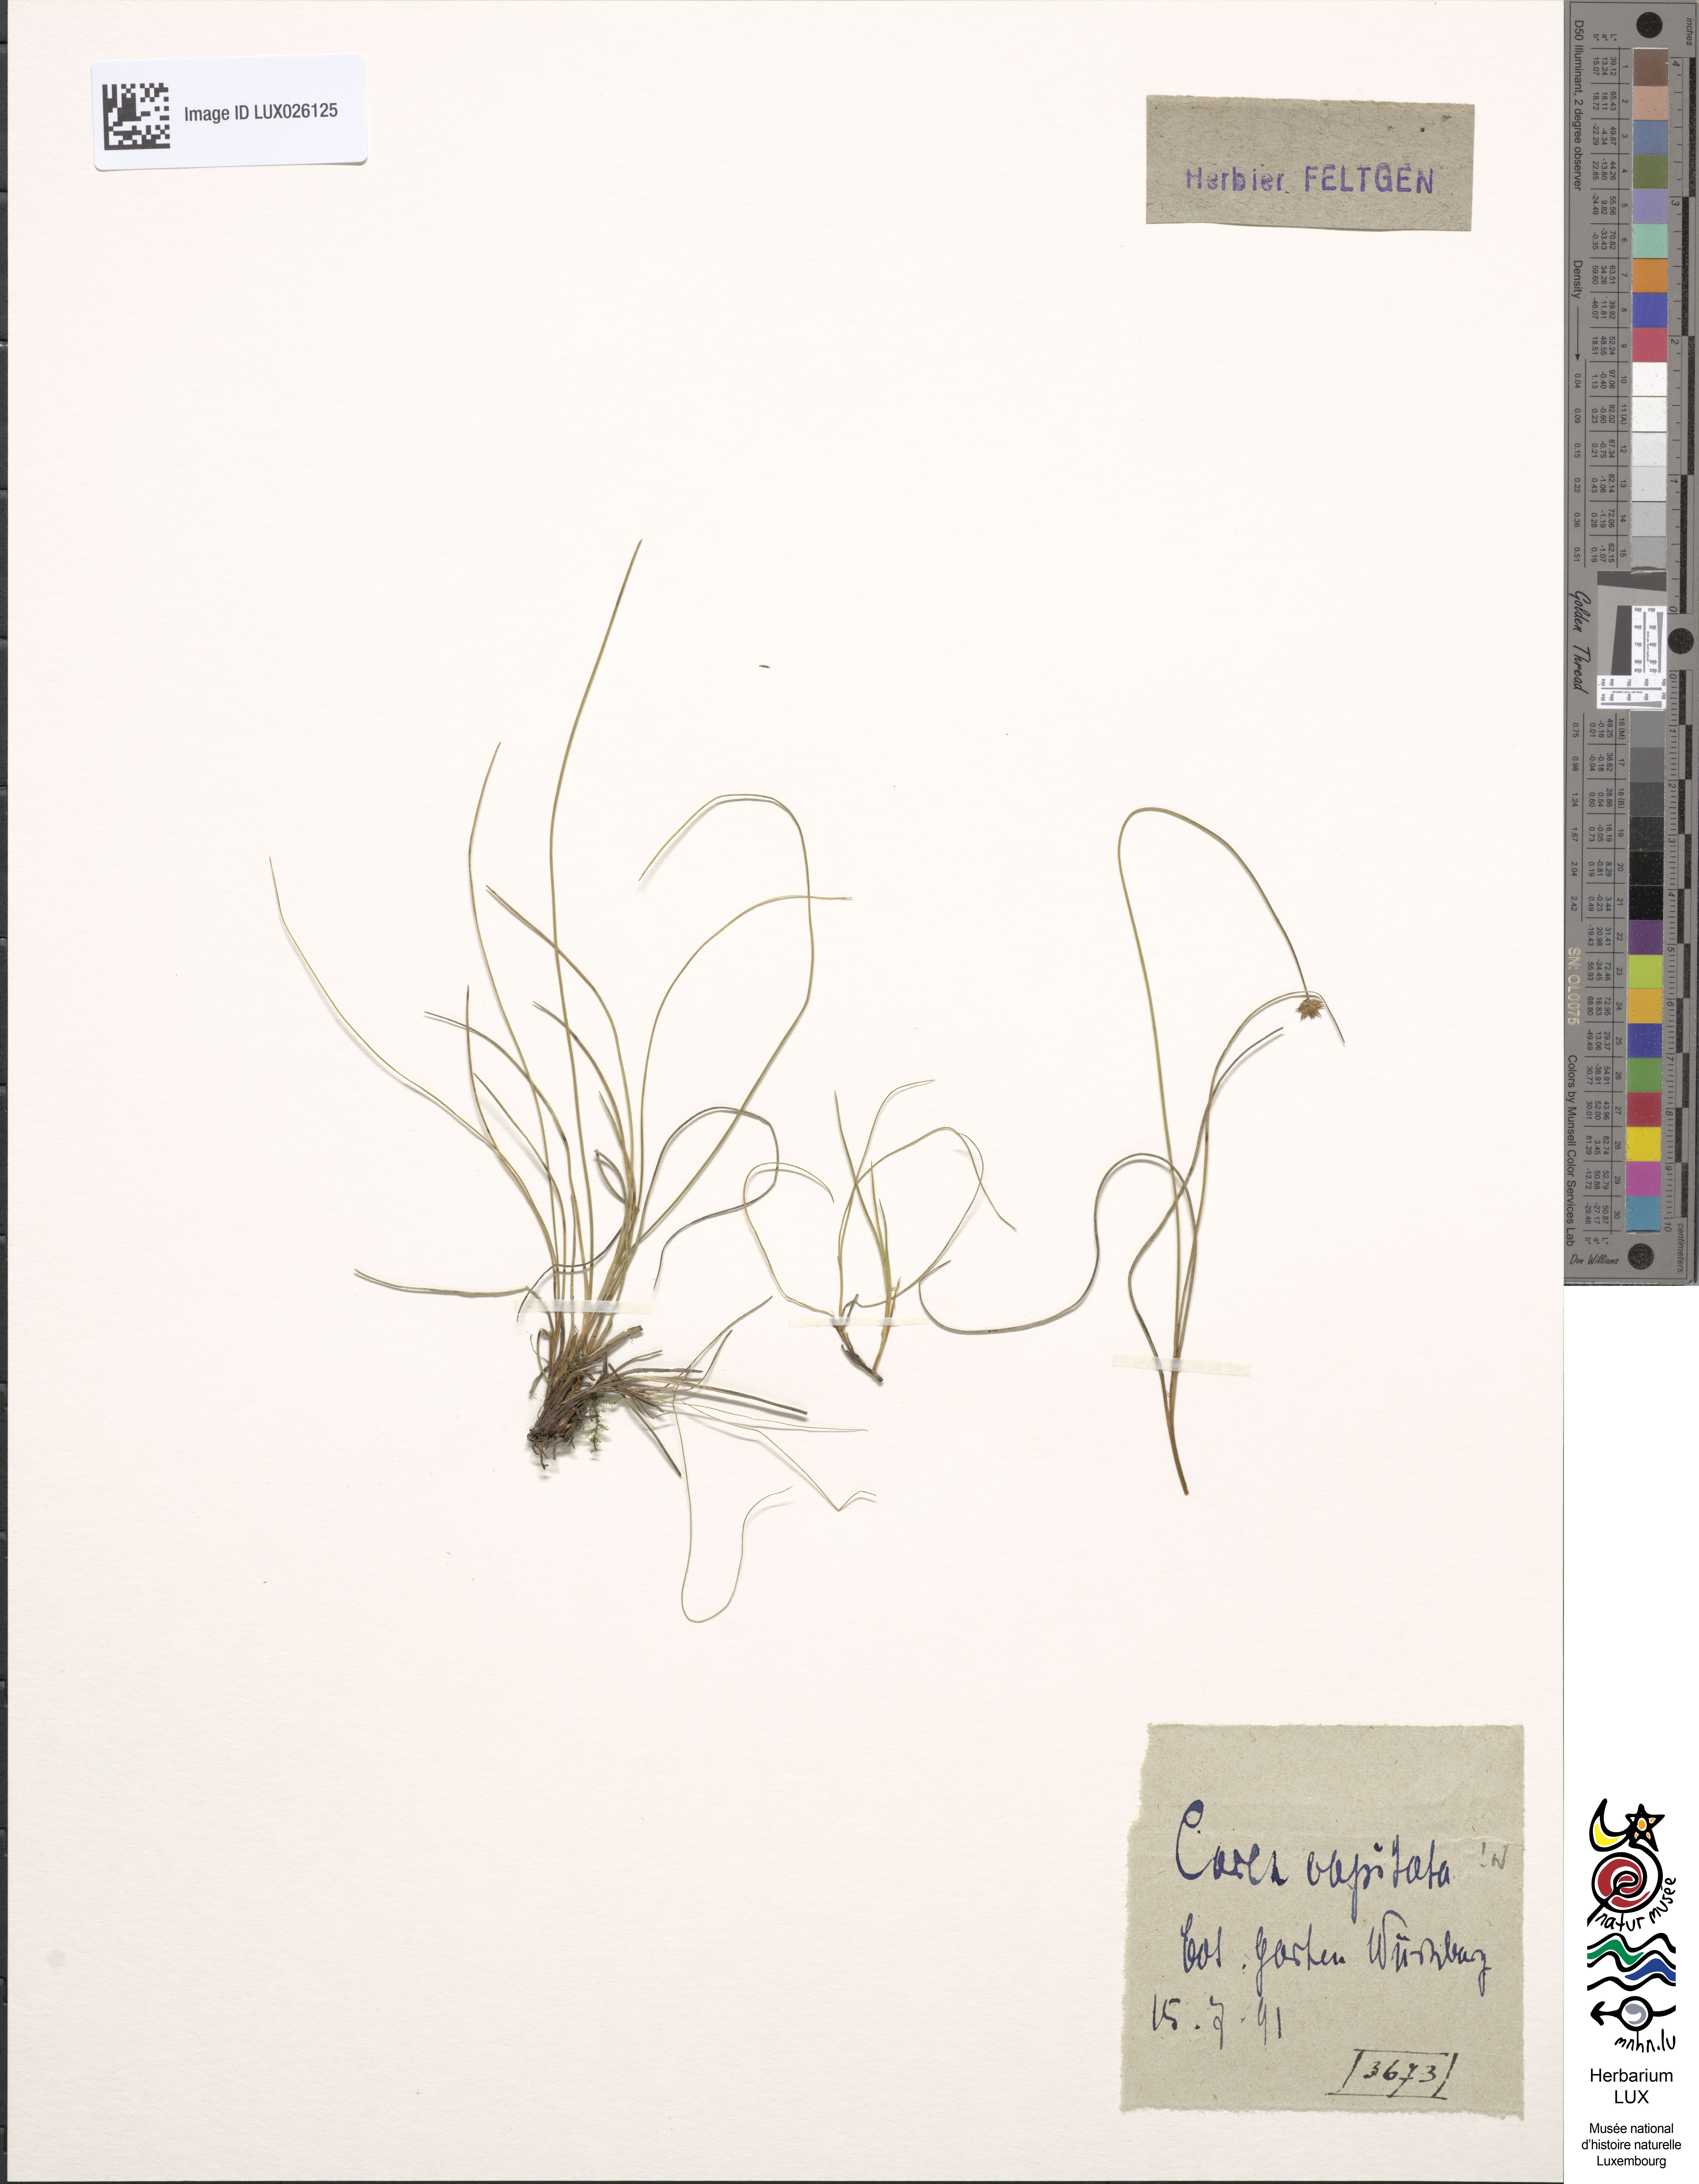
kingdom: Plantae
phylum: Tracheophyta
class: Liliopsida
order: Poales
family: Cyperaceae
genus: Carex
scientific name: Carex capitata
